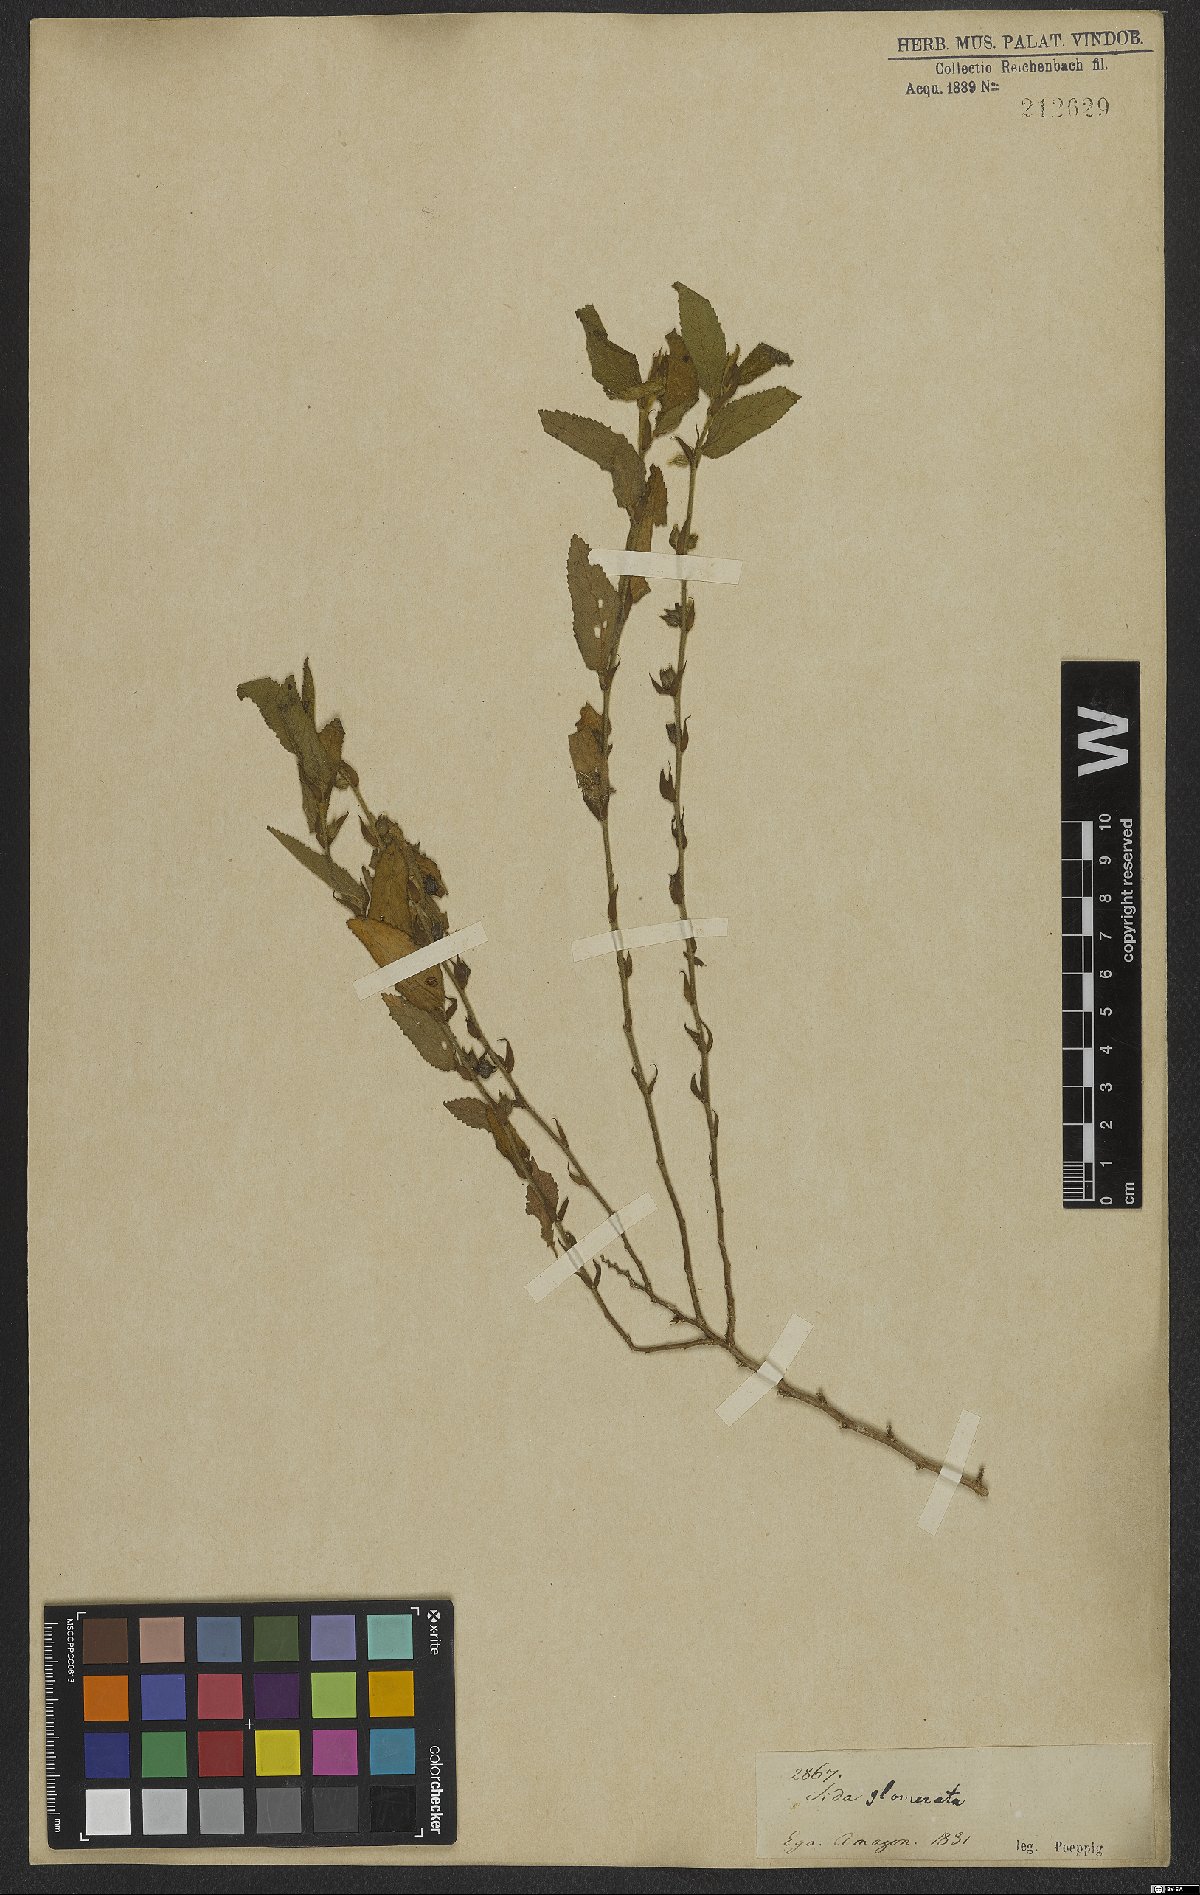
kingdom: Plantae
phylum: Tracheophyta
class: Magnoliopsida
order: Malvales
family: Malvaceae
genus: Sida
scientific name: Sida glomerata
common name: Clustered fanpetals
